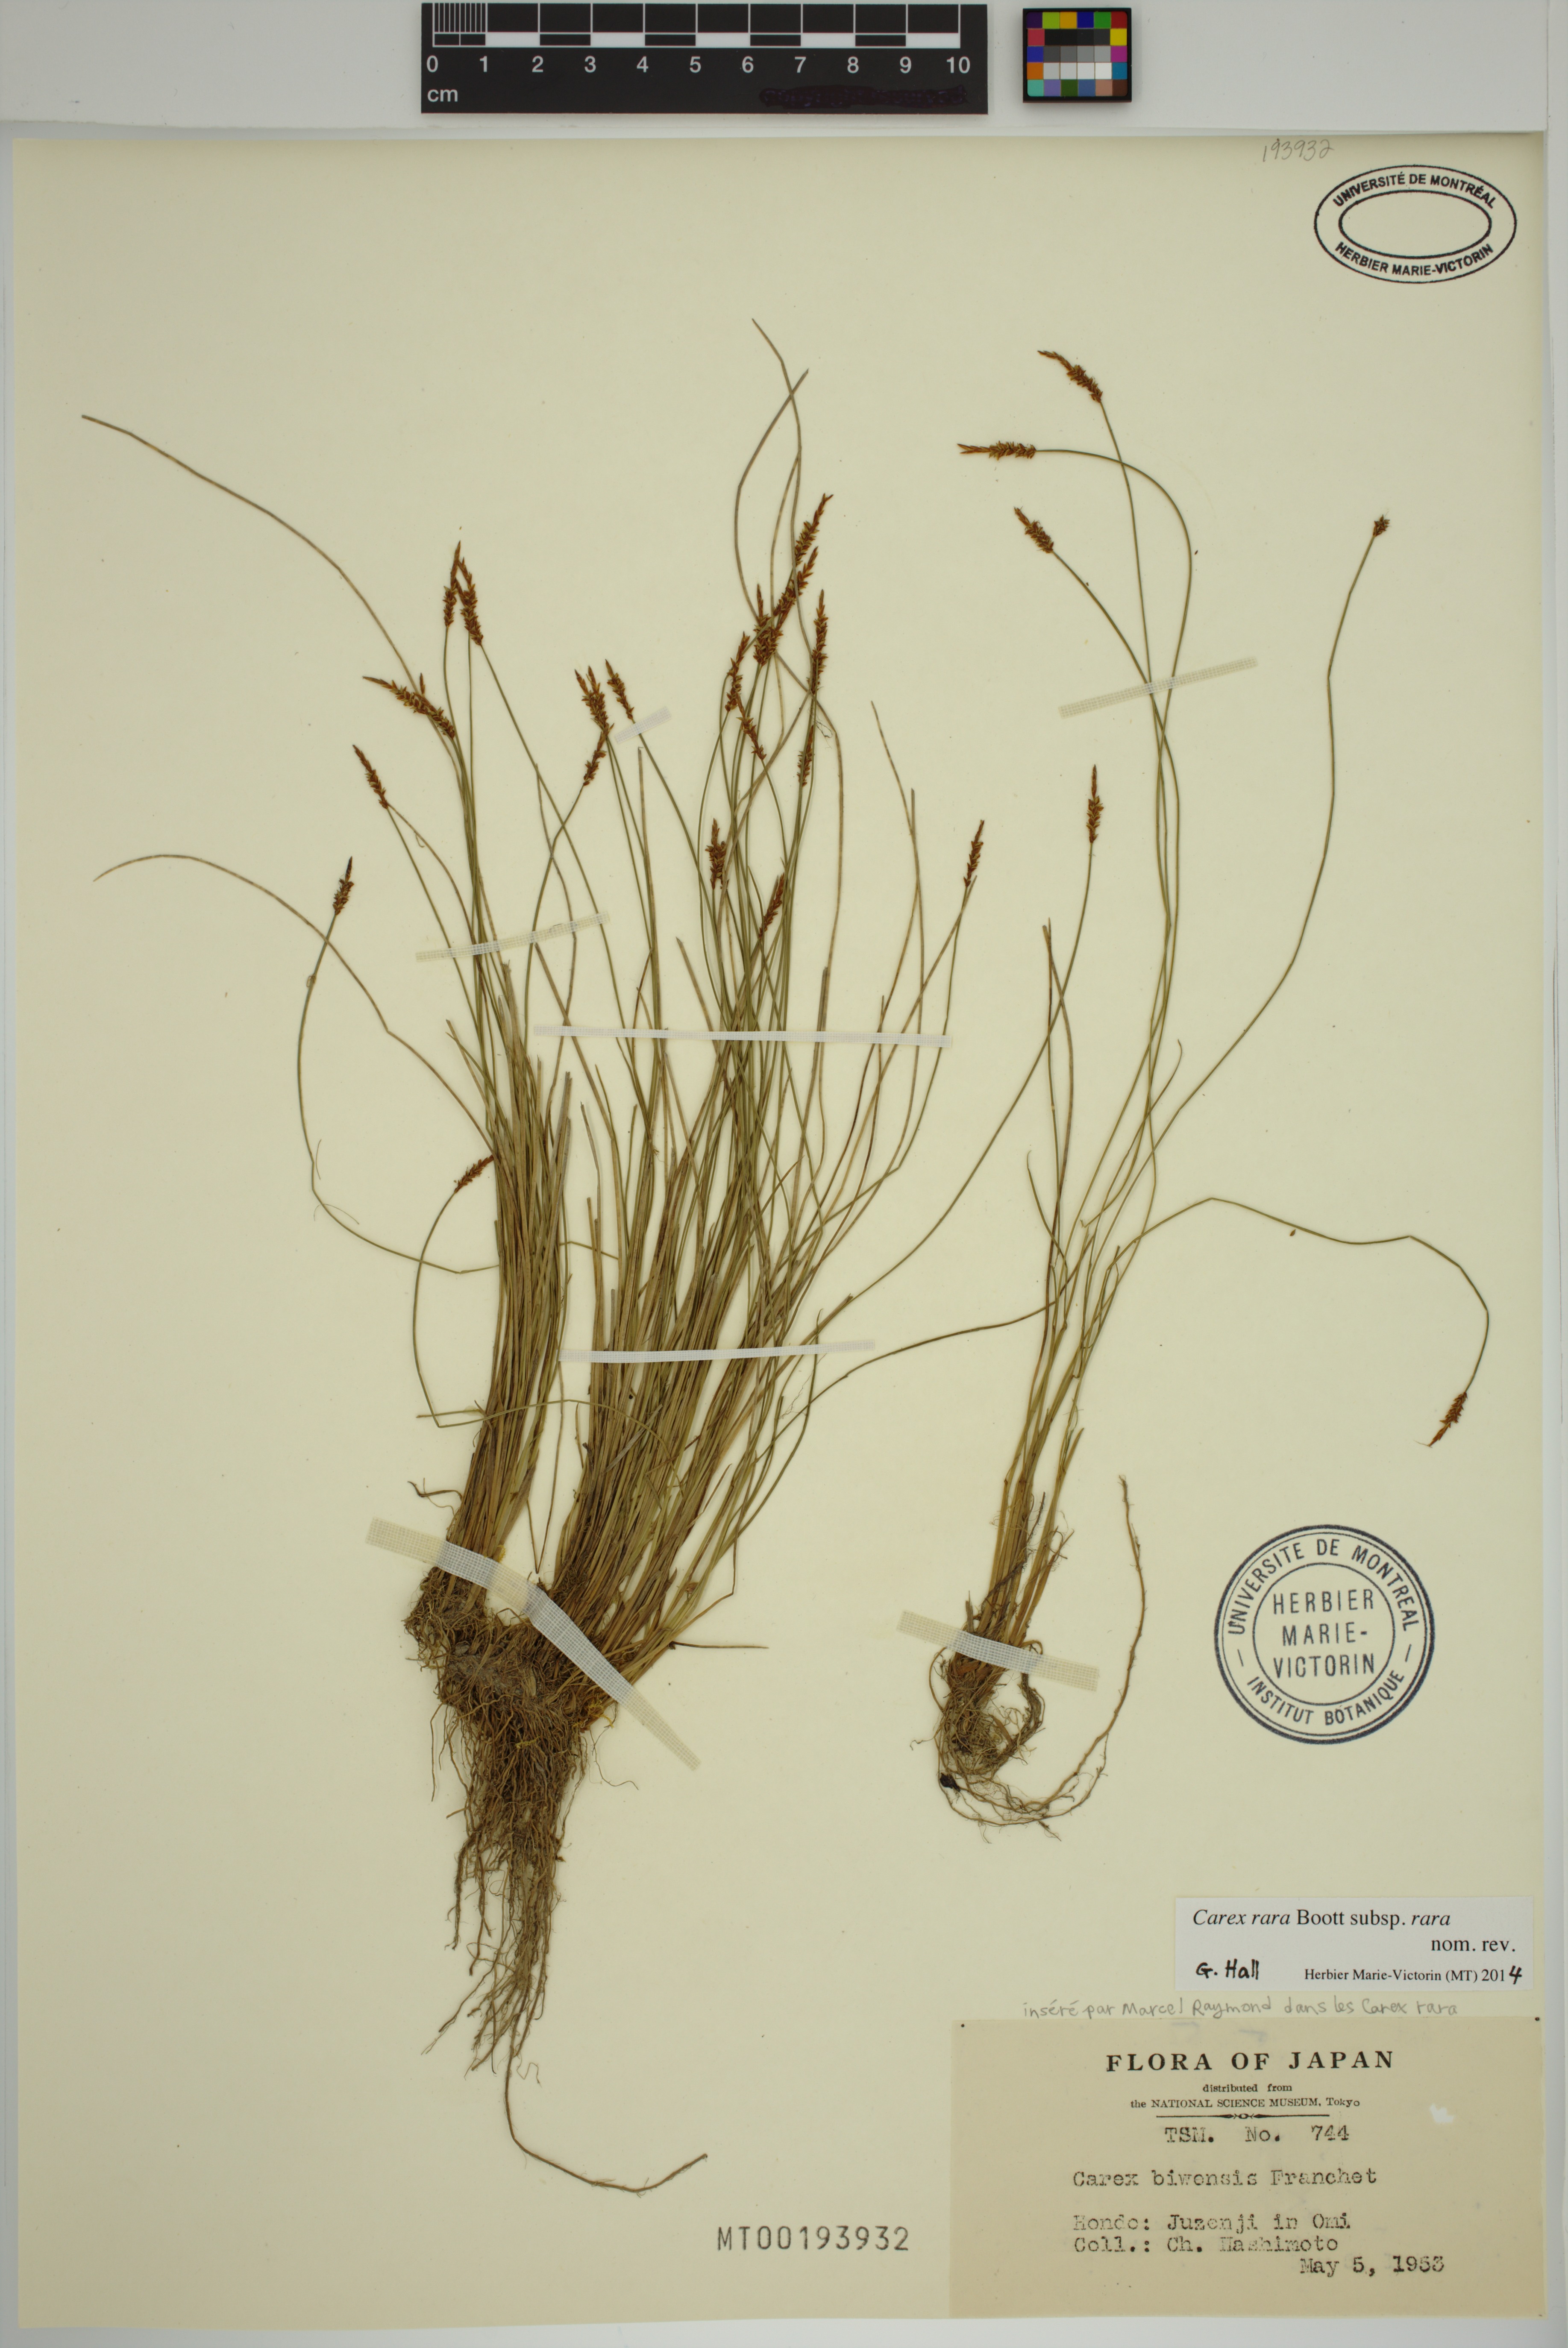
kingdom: Plantae
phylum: Tracheophyta
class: Liliopsida
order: Poales
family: Cyperaceae
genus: Carex
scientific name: Carex rara
